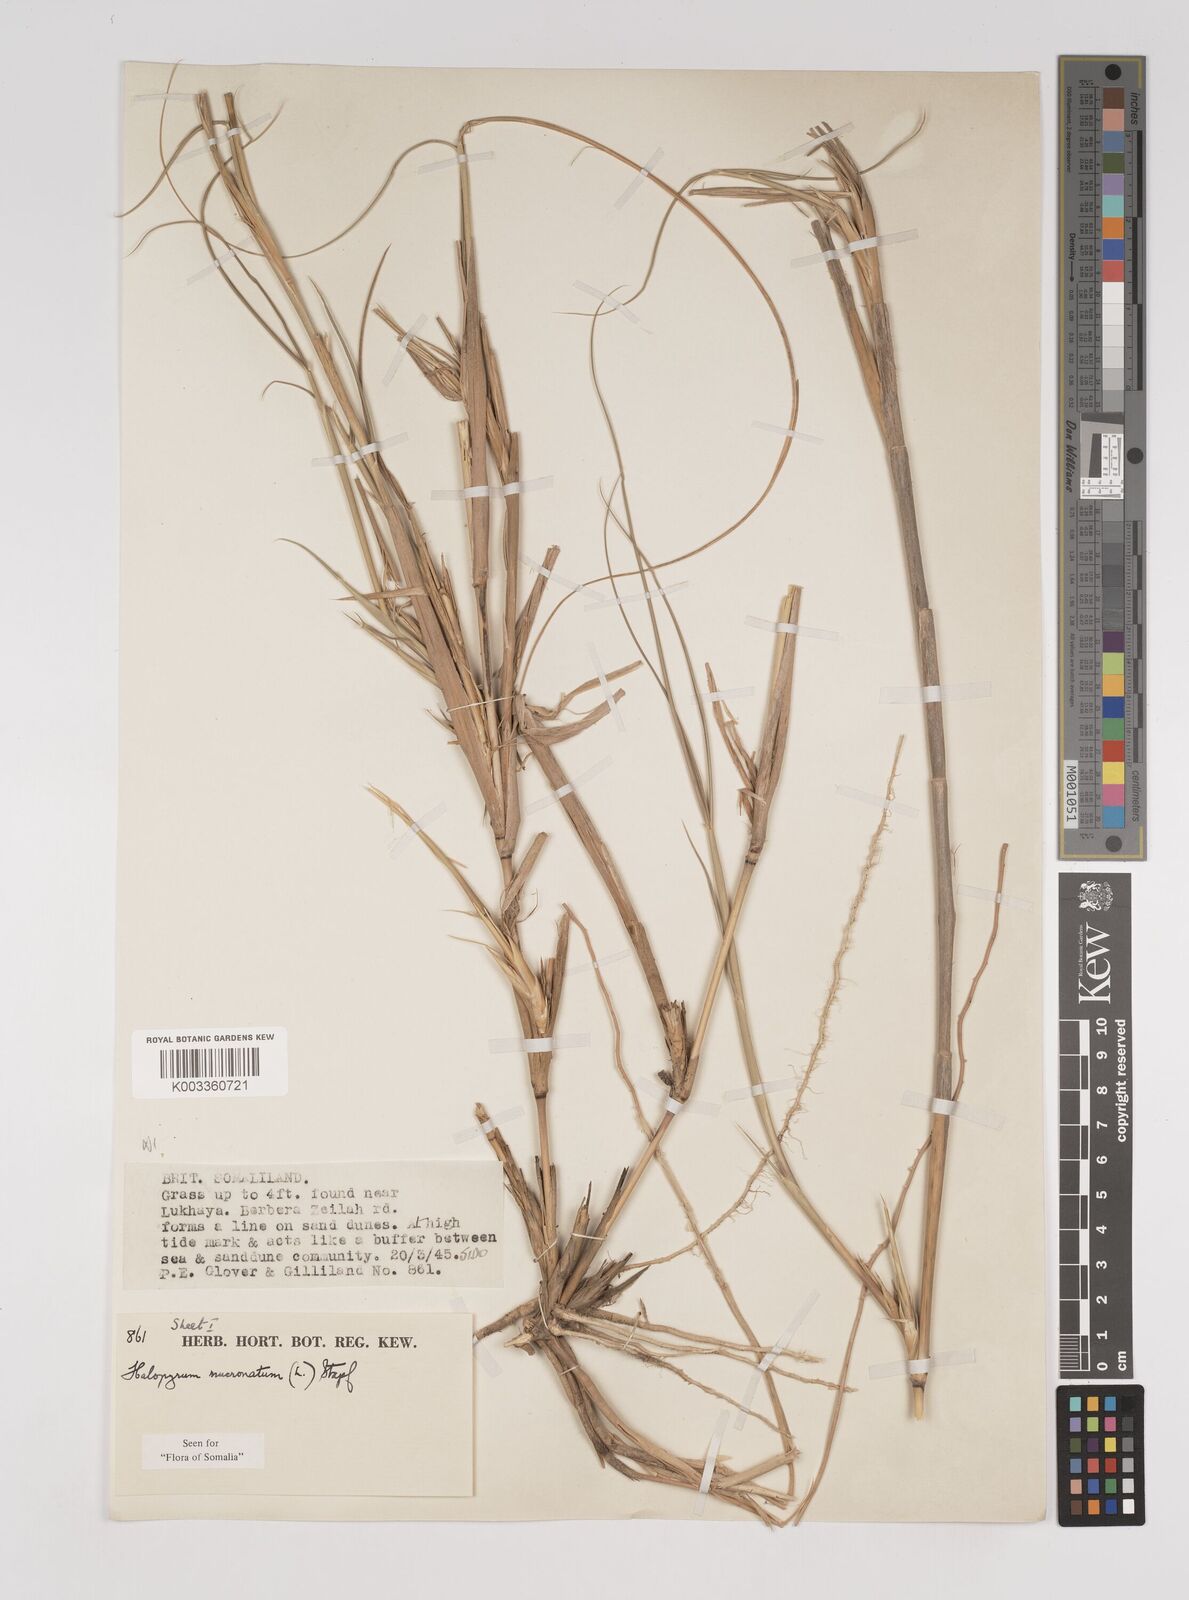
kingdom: Plantae
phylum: Tracheophyta
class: Liliopsida
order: Poales
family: Poaceae
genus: Halopyrum
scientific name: Halopyrum mucronatum
